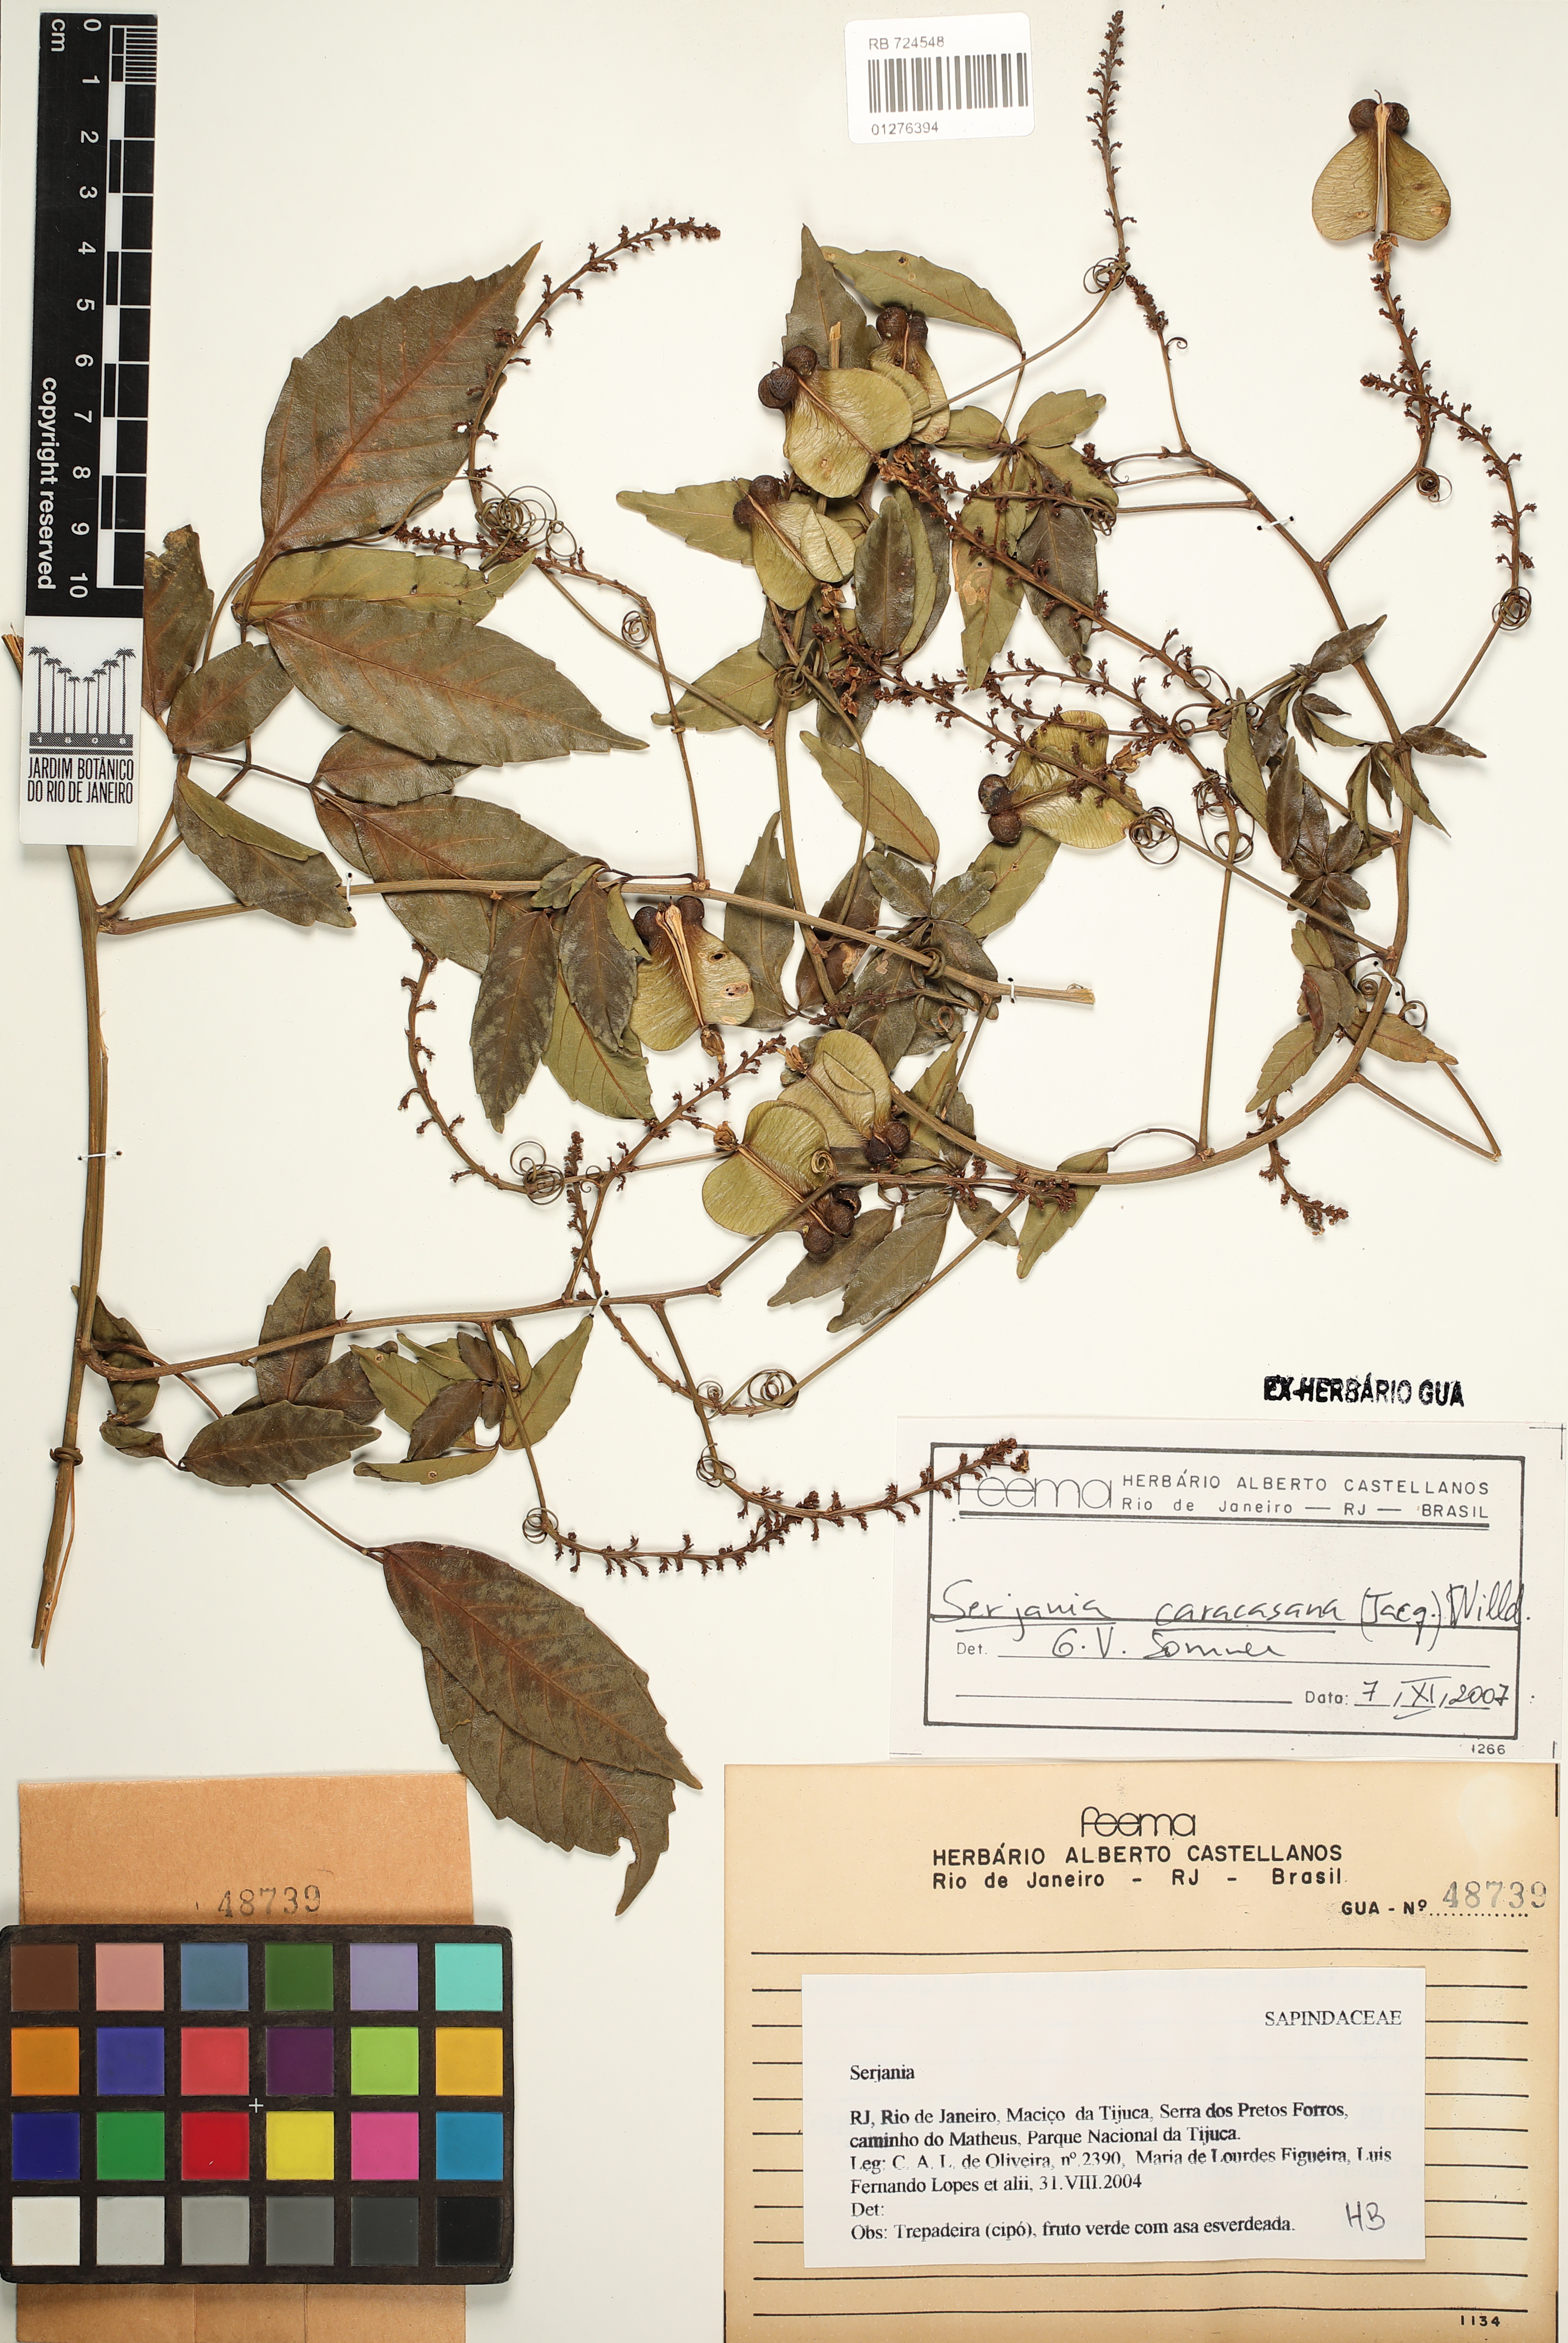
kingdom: Plantae
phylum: Tracheophyta
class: Magnoliopsida
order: Sapindales
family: Sapindaceae
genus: Serjania
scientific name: Serjania caracasana
